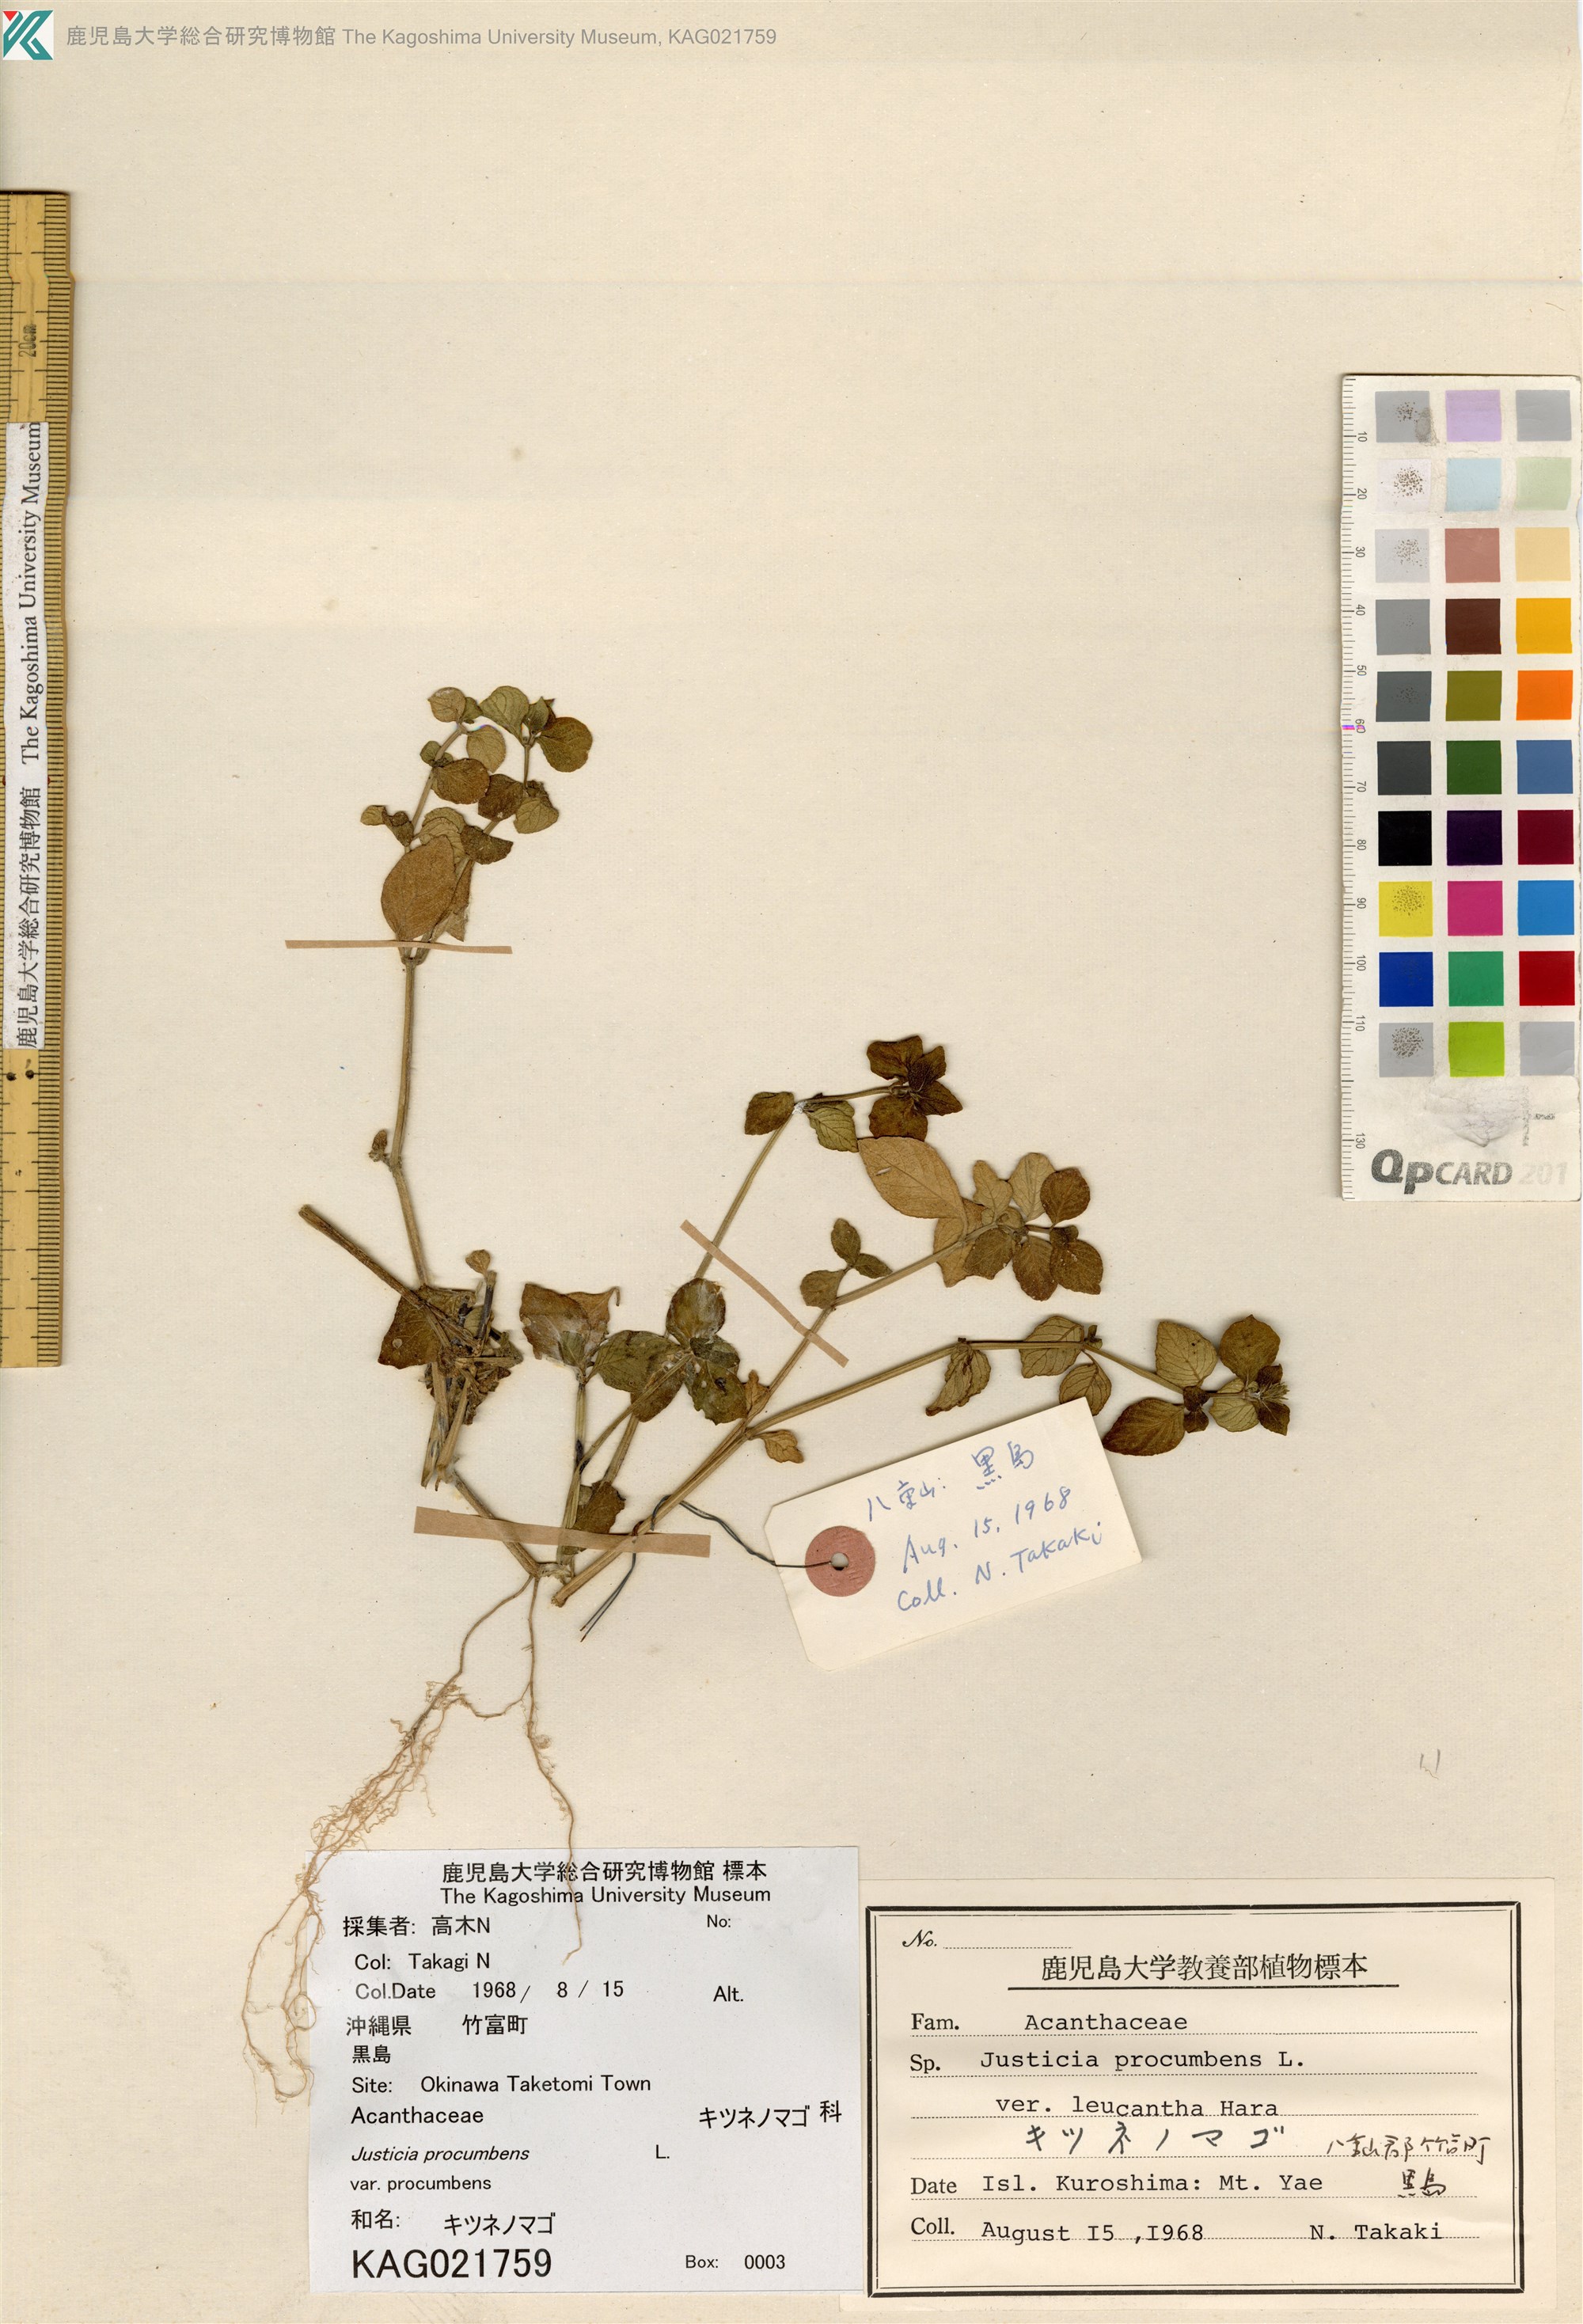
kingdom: Plantae
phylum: Tracheophyta
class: Magnoliopsida
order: Lamiales
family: Acanthaceae
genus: Rostellularia
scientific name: Rostellularia procumbens
